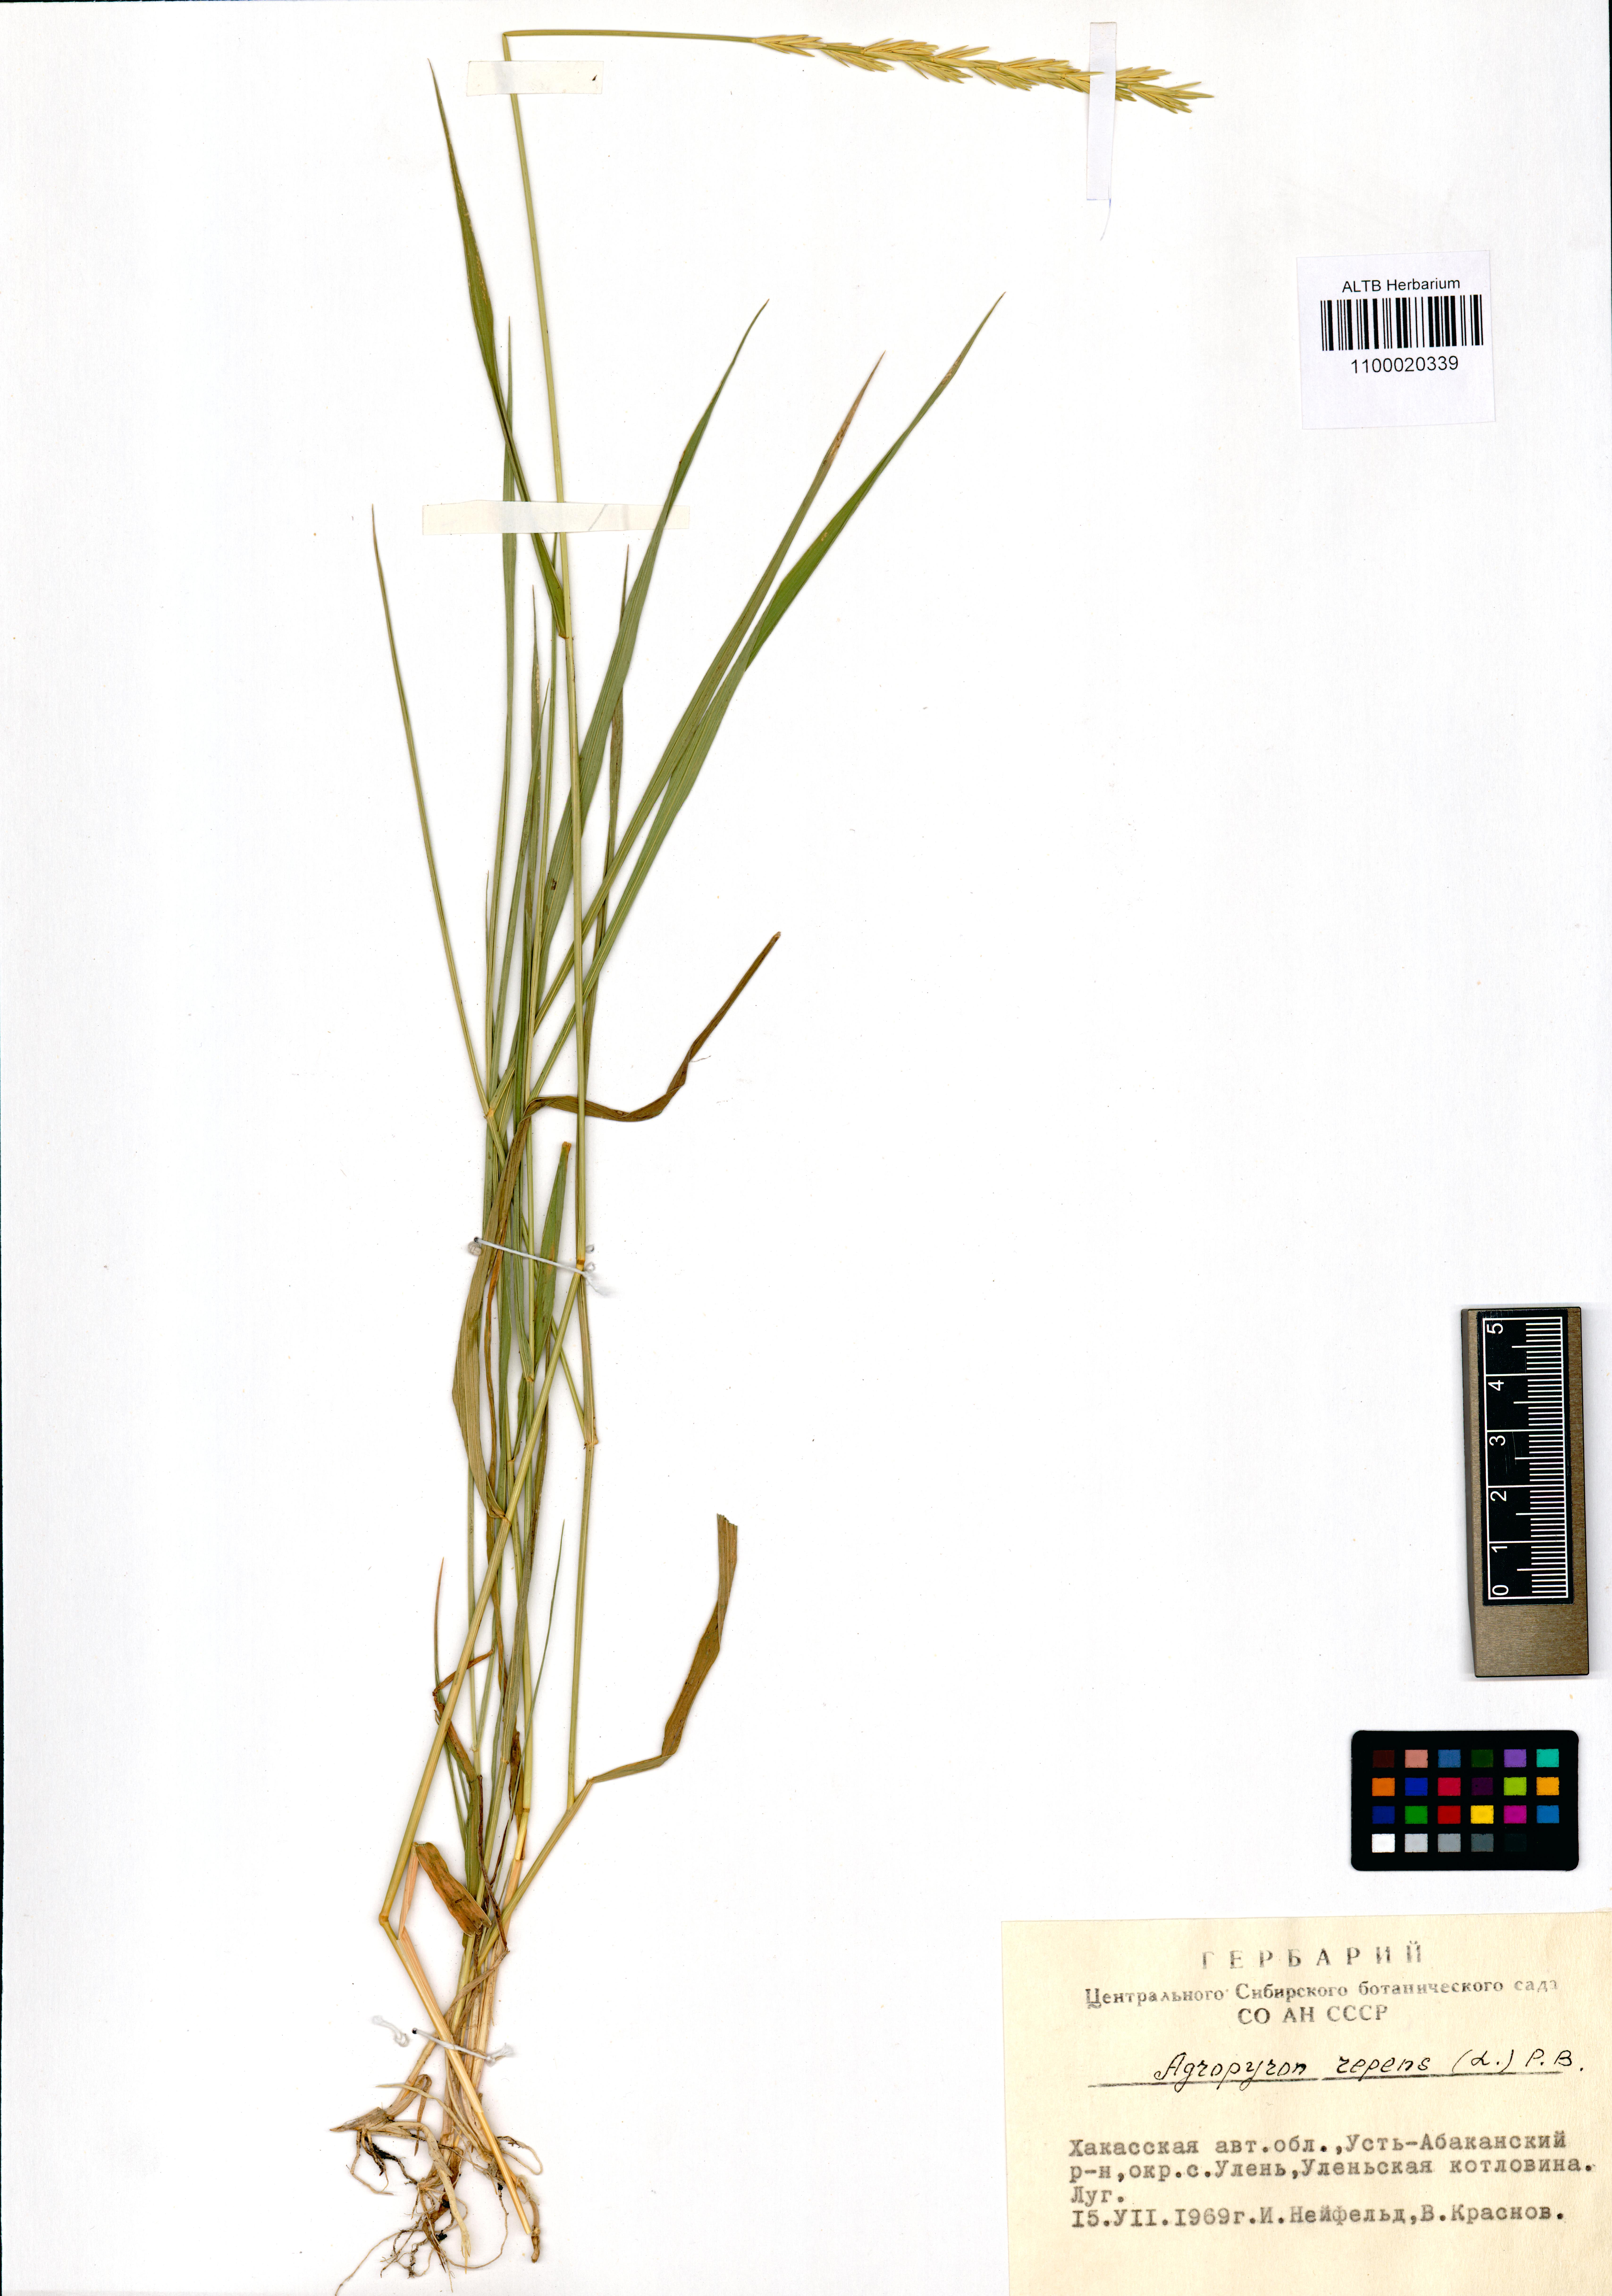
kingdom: Plantae
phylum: Tracheophyta
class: Liliopsida
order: Poales
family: Poaceae
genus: Elymus
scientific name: Elymus repens
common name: Quackgrass
